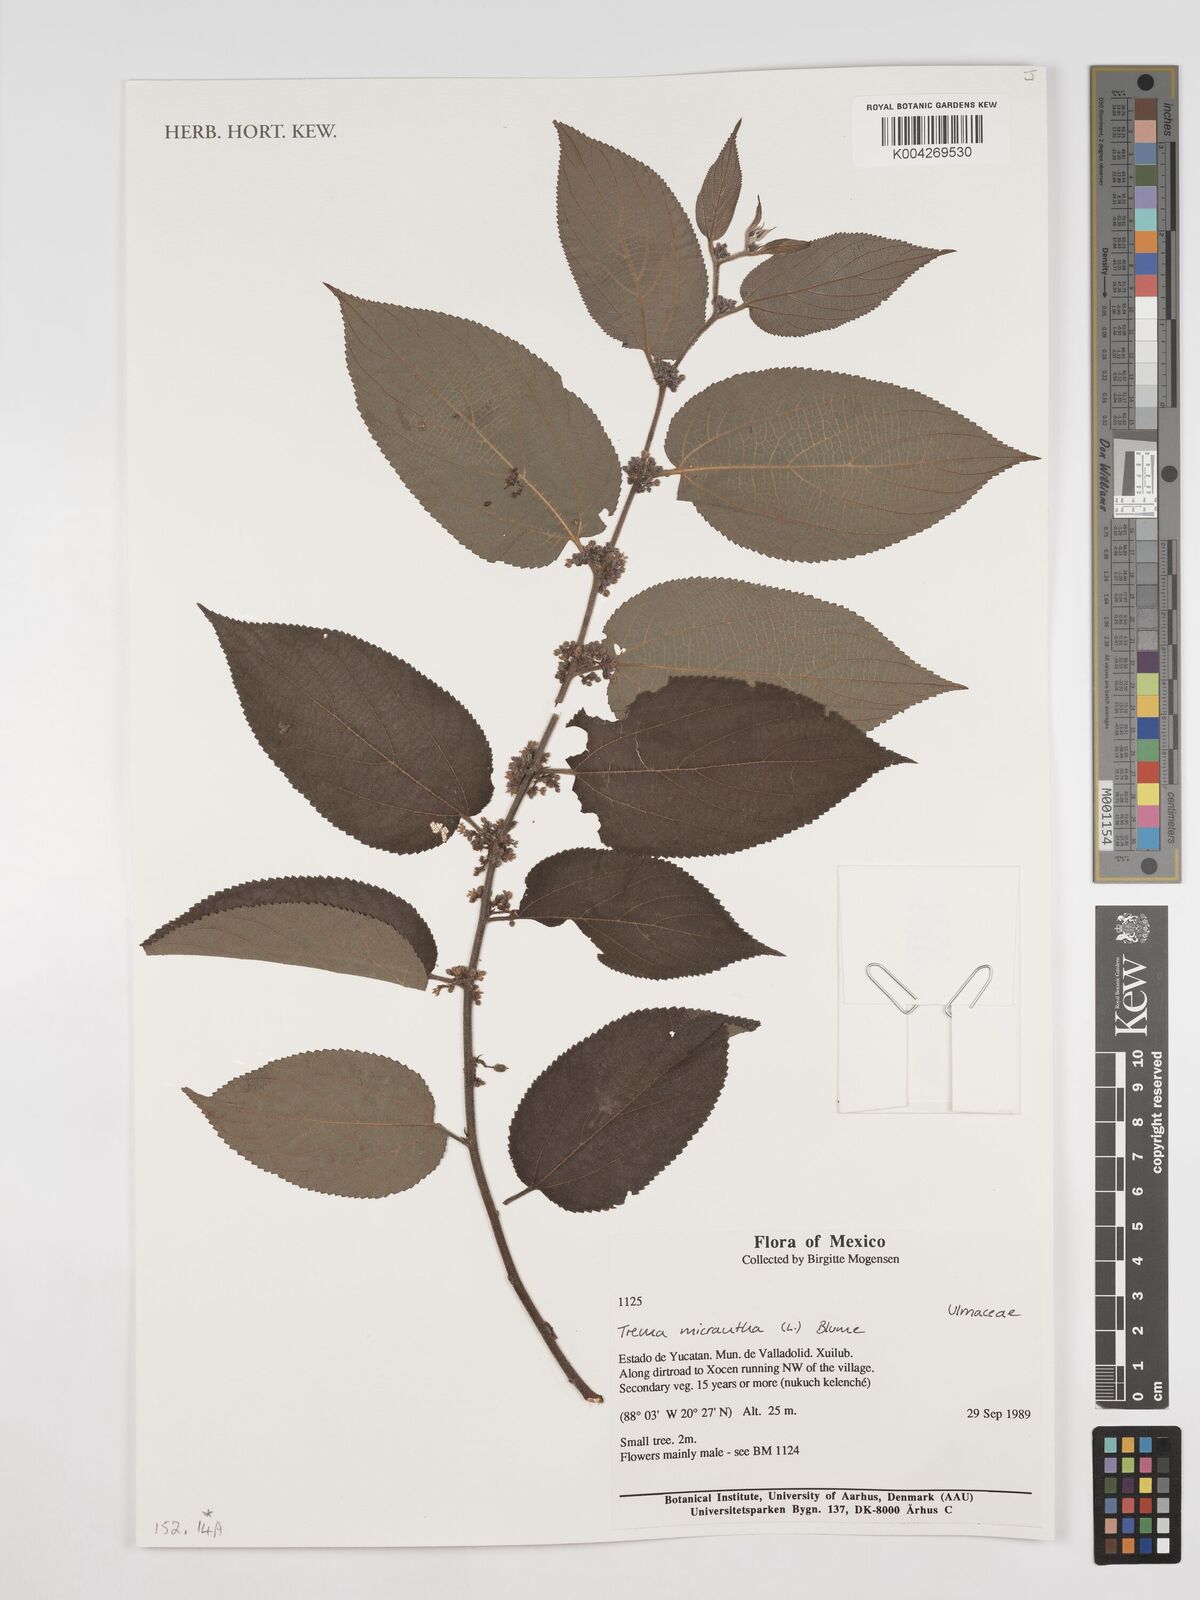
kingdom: Plantae
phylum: Tracheophyta
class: Magnoliopsida
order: Rosales
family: Cannabaceae
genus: Trema
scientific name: Trema micranthum
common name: Jamaican nettletree
